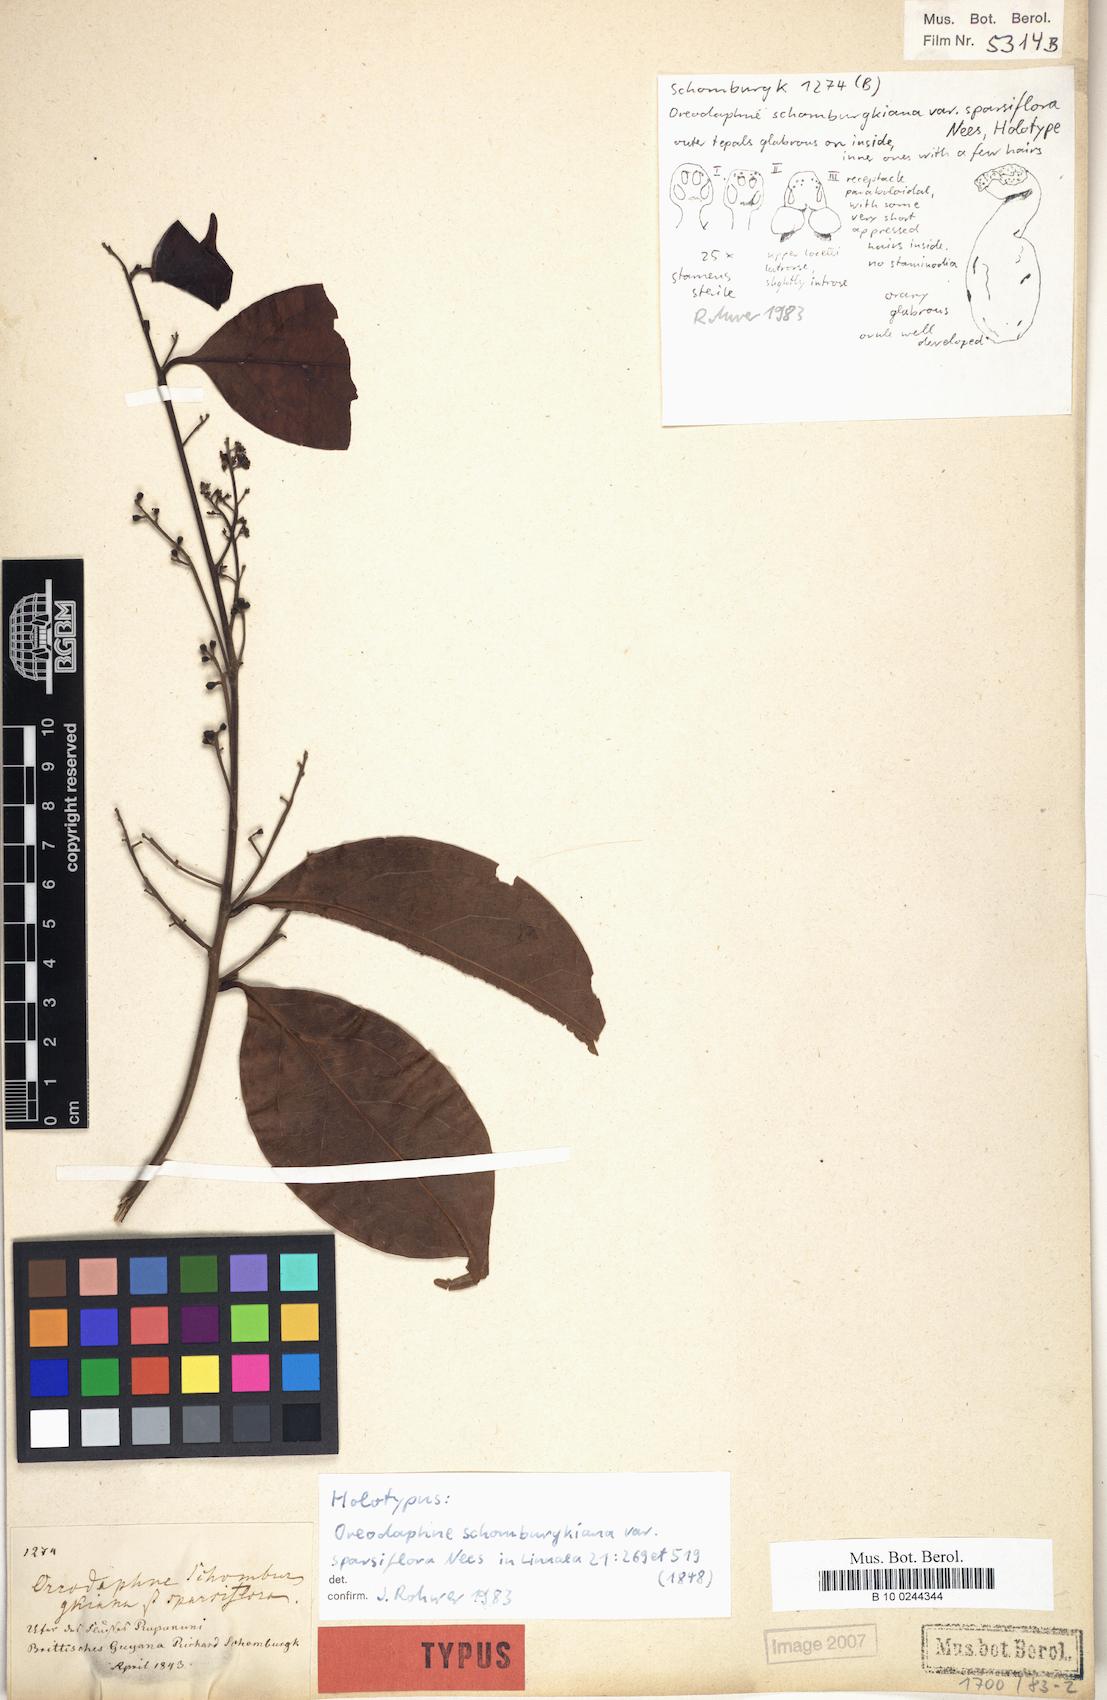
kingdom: Plantae
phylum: Tracheophyta
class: Magnoliopsida
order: Laurales
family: Lauraceae
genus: Ocotea
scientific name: Ocotea schomburgkiana
